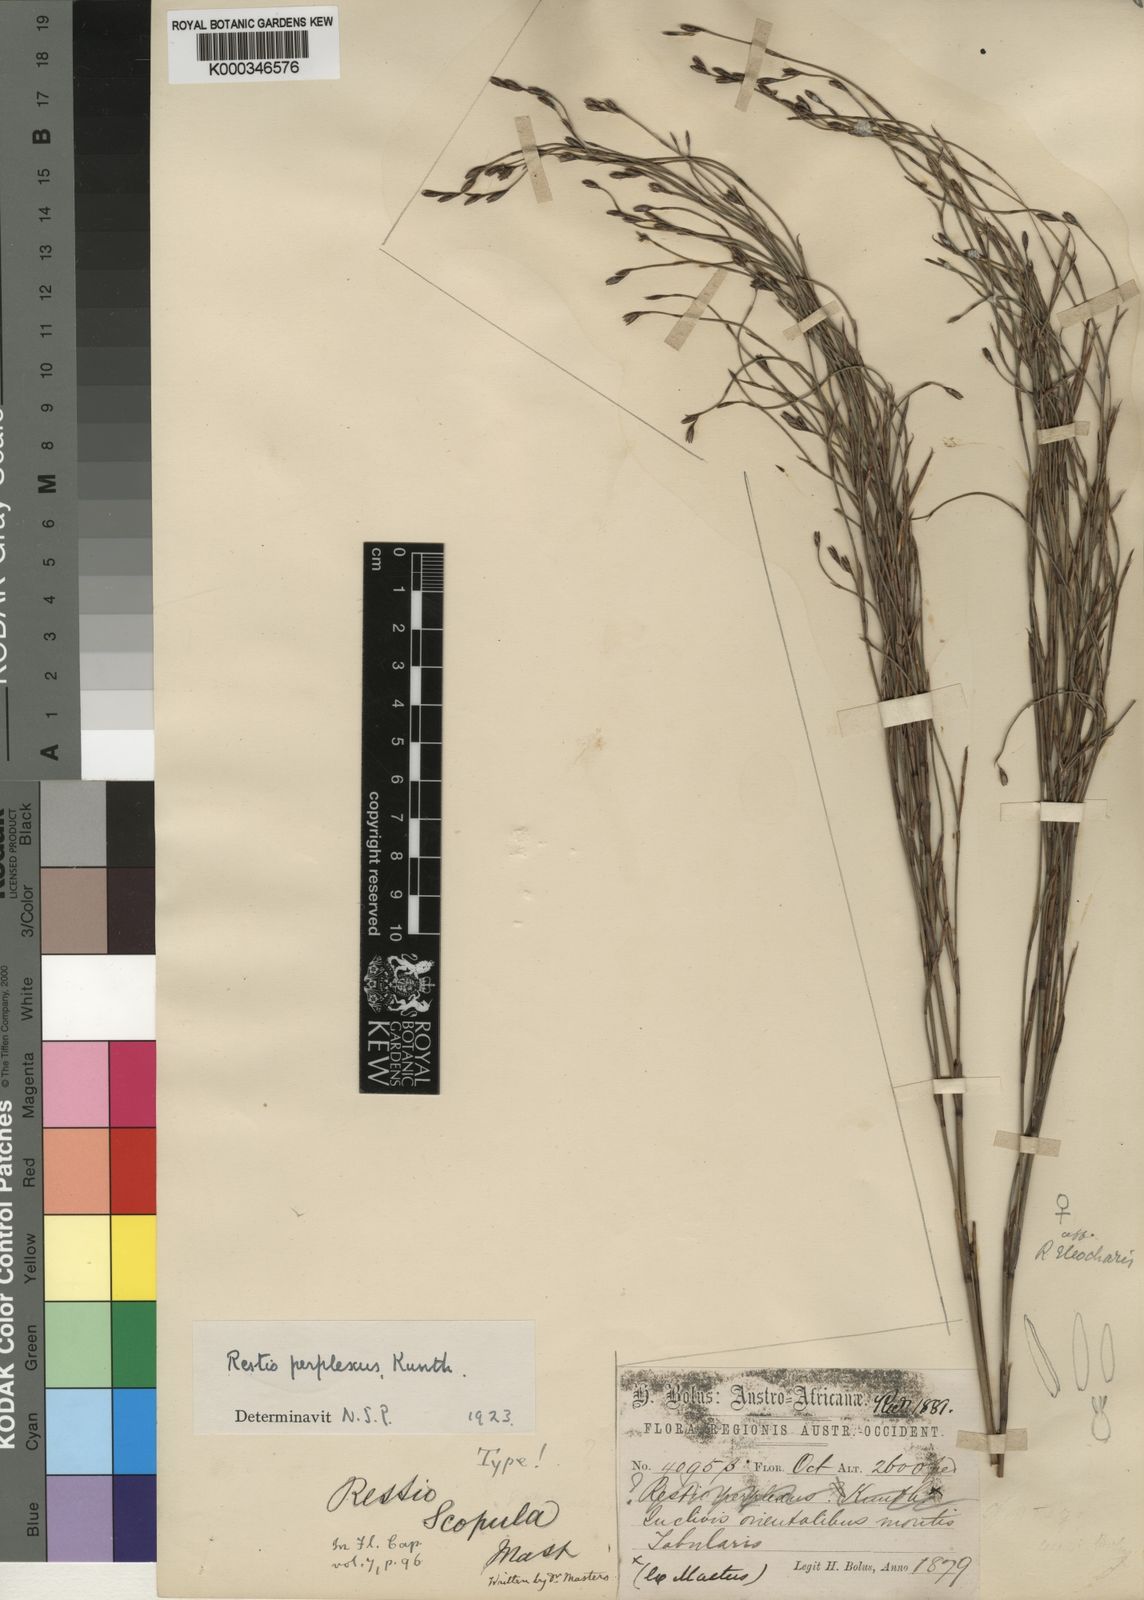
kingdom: Plantae
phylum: Tracheophyta
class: Liliopsida
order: Poales
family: Restionaceae
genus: Restio
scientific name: Restio perplexus
